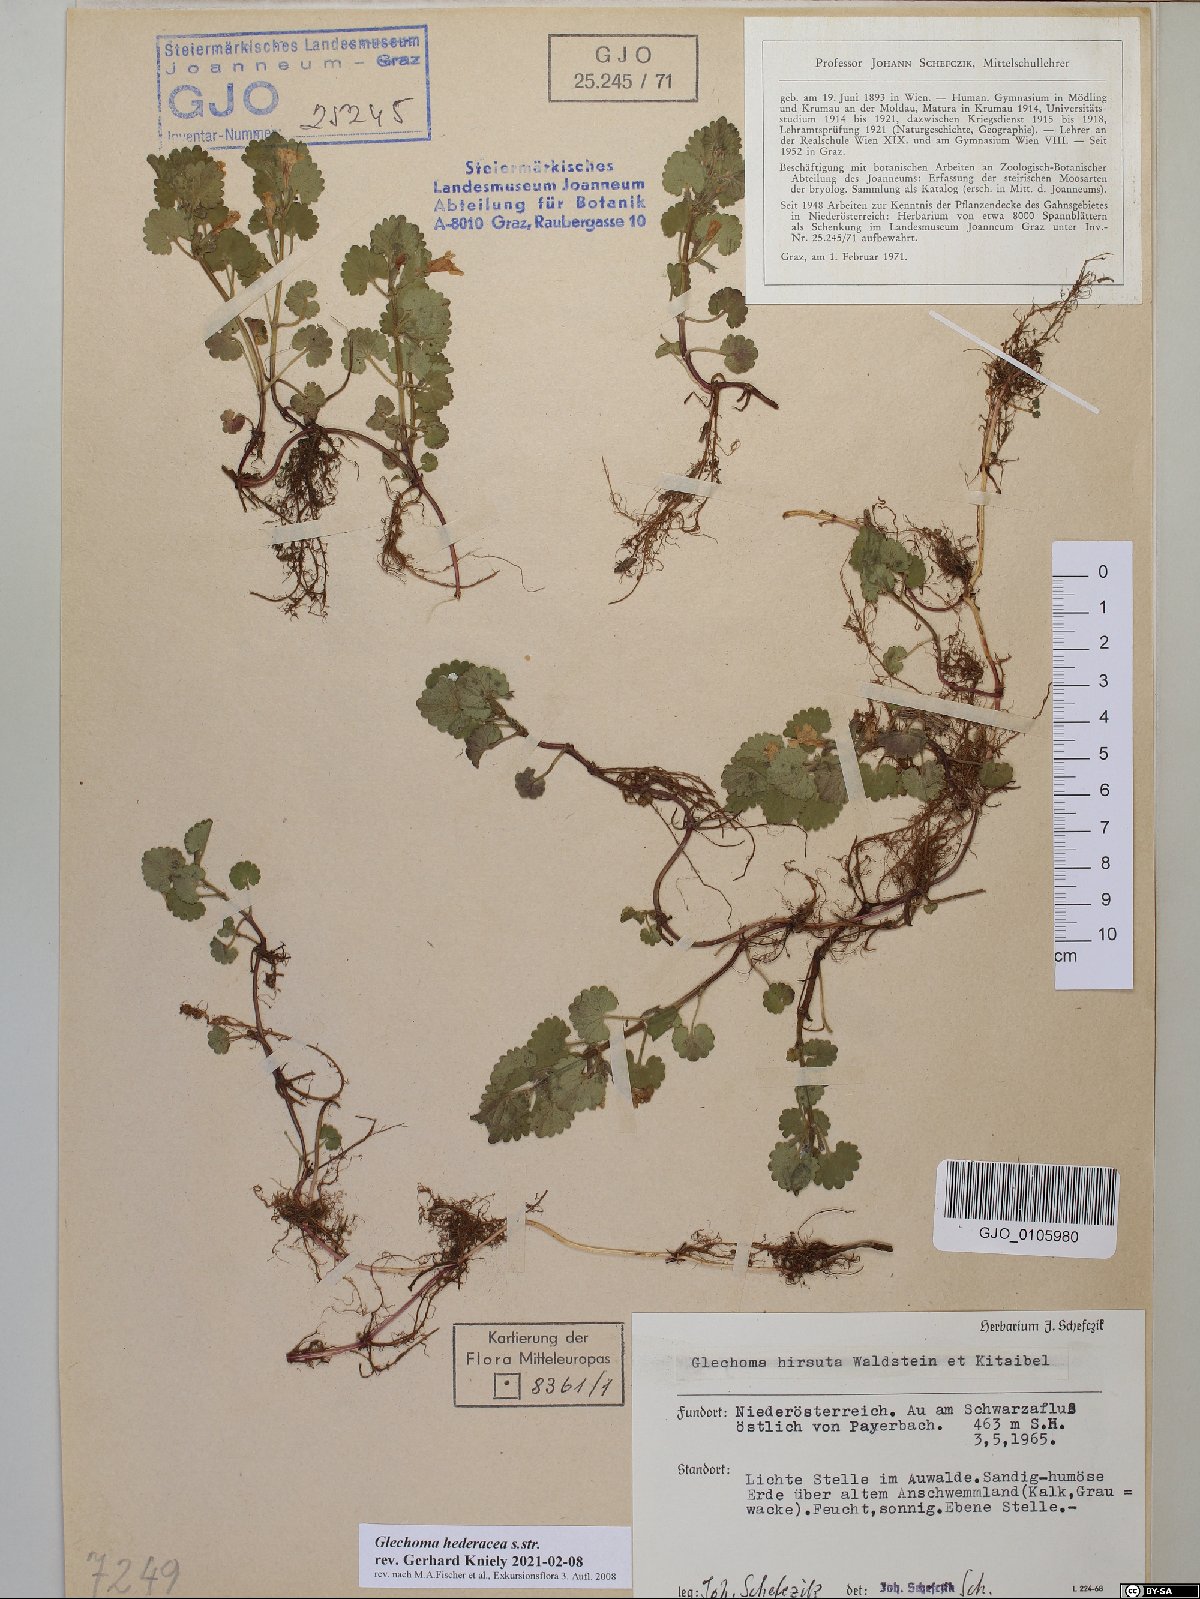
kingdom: Plantae
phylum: Tracheophyta
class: Magnoliopsida
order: Lamiales
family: Lamiaceae
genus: Glechoma
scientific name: Glechoma hederacea
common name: Ground ivy
